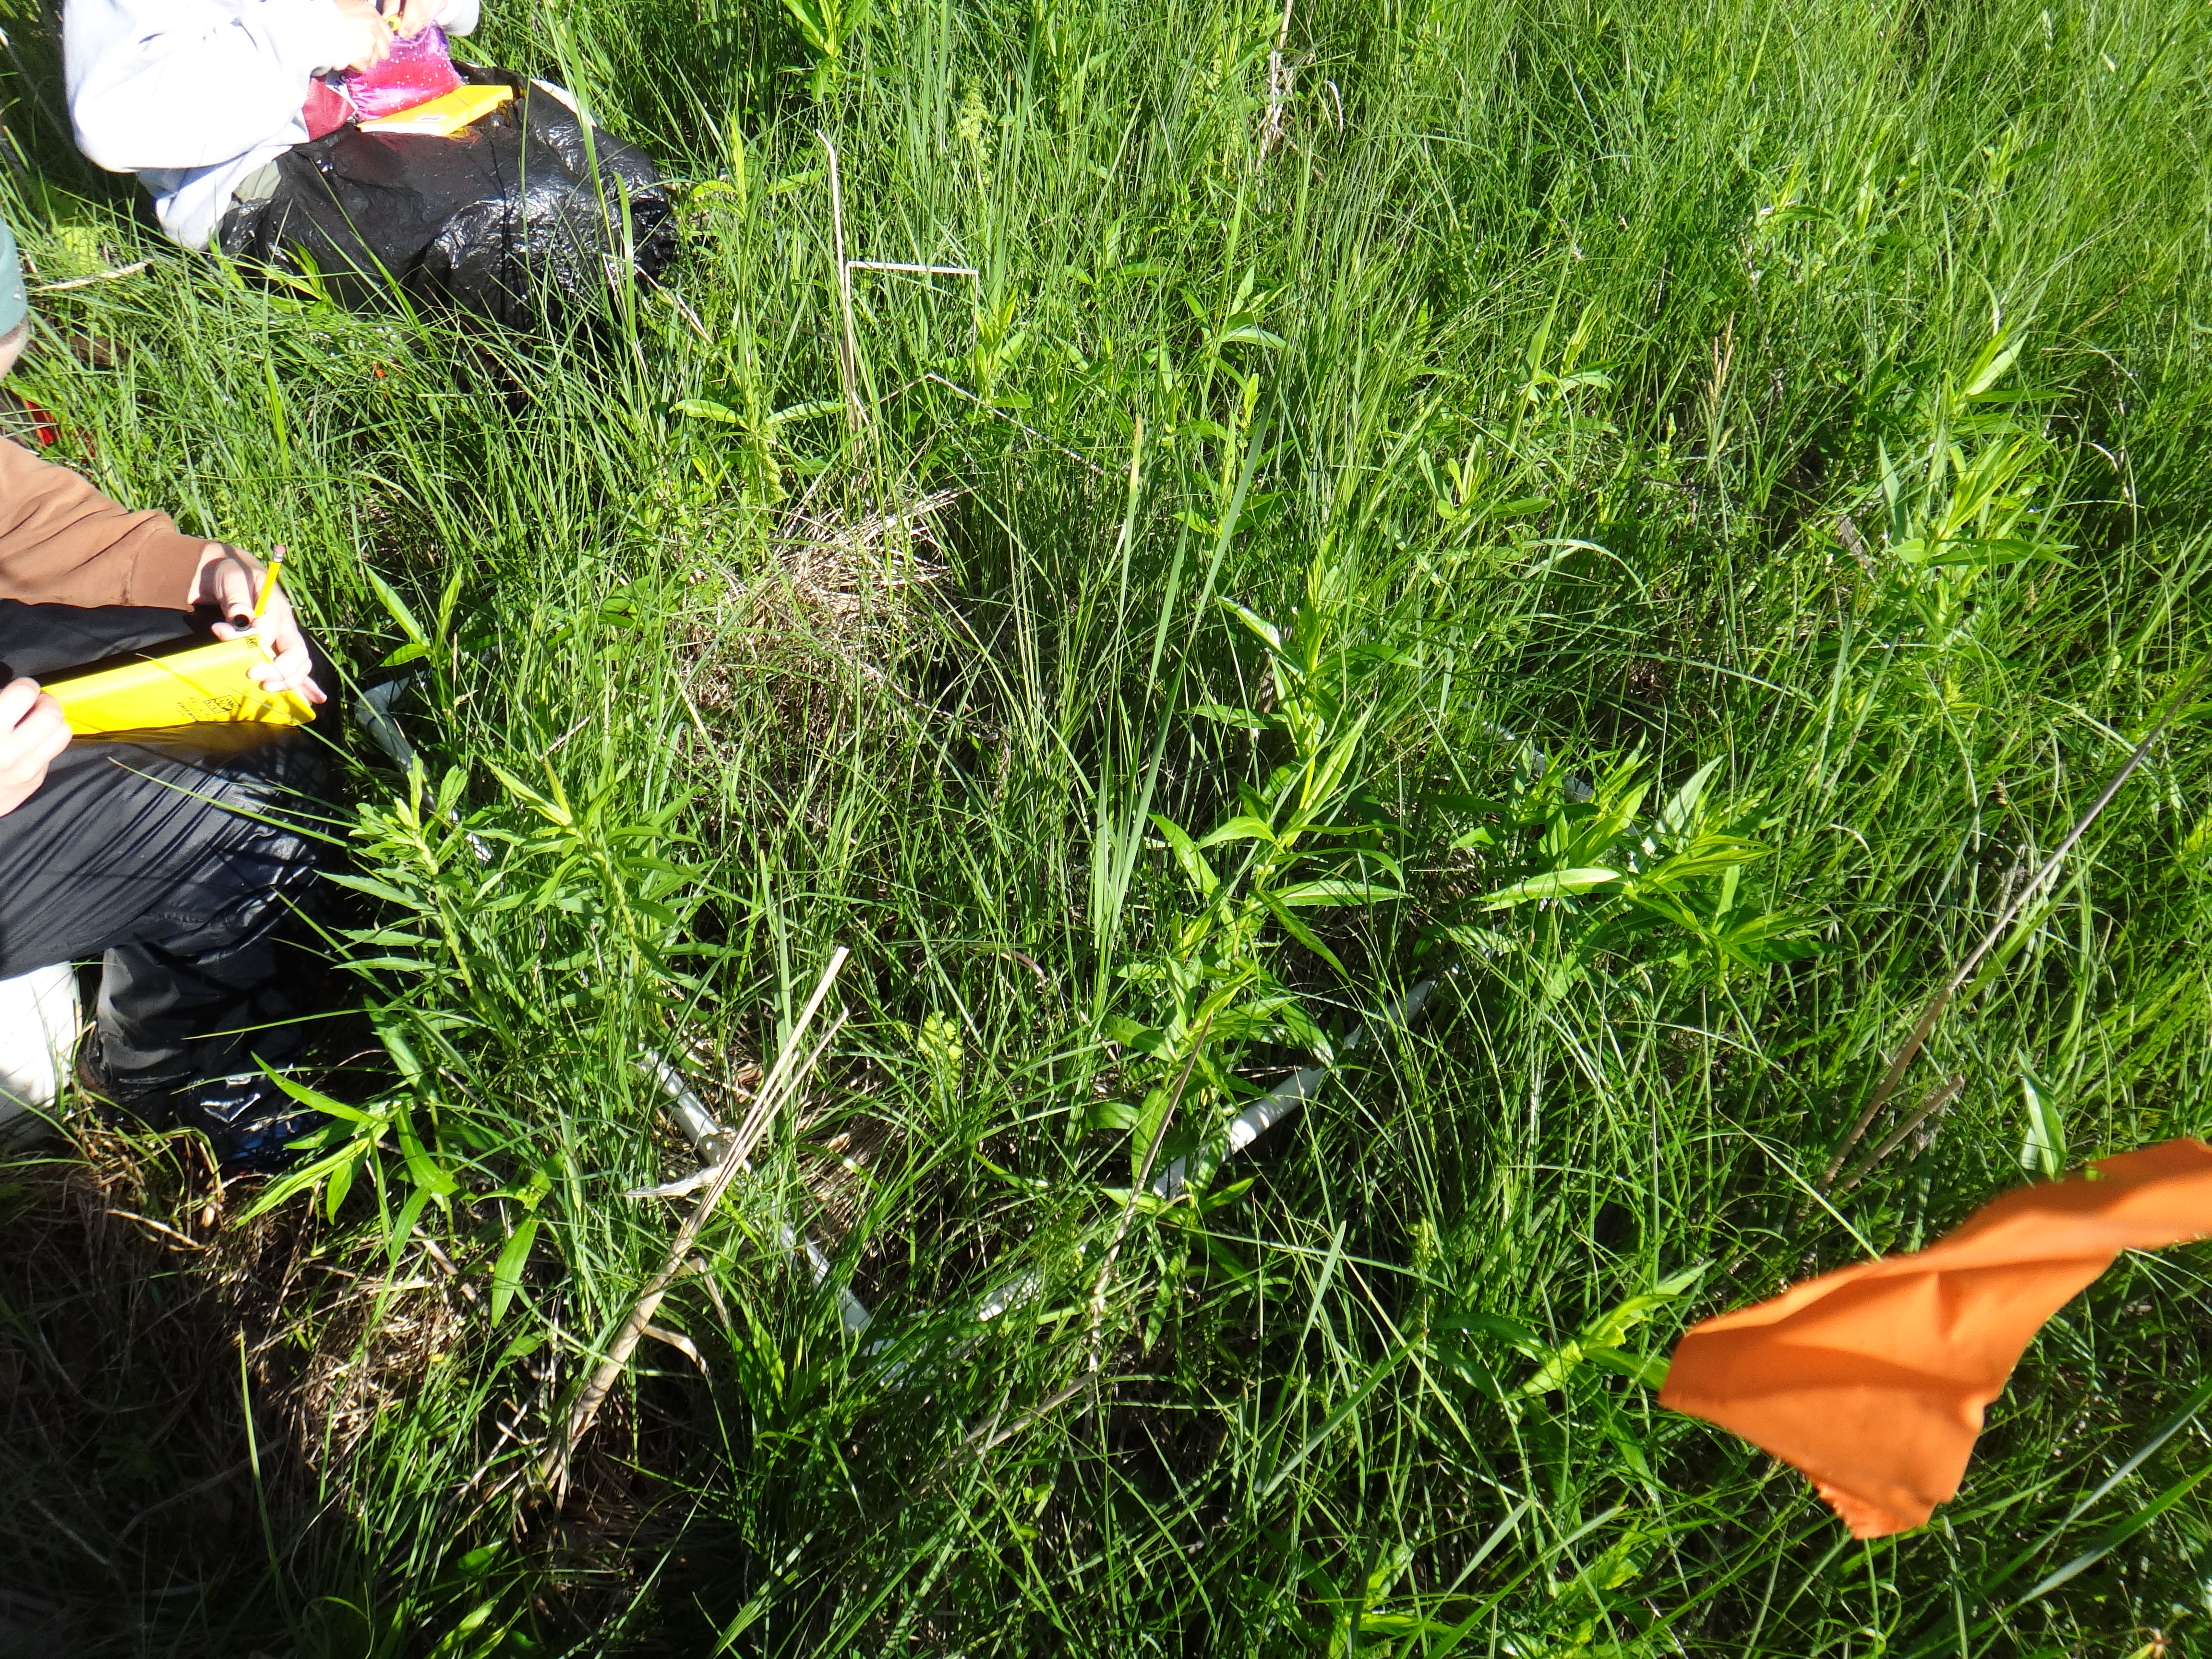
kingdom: Plantae
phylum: Tracheophyta
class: Magnoliopsida
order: Fabales
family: Fabaceae
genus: Lathyrus
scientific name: Lathyrus palustris
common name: Marsh pea
